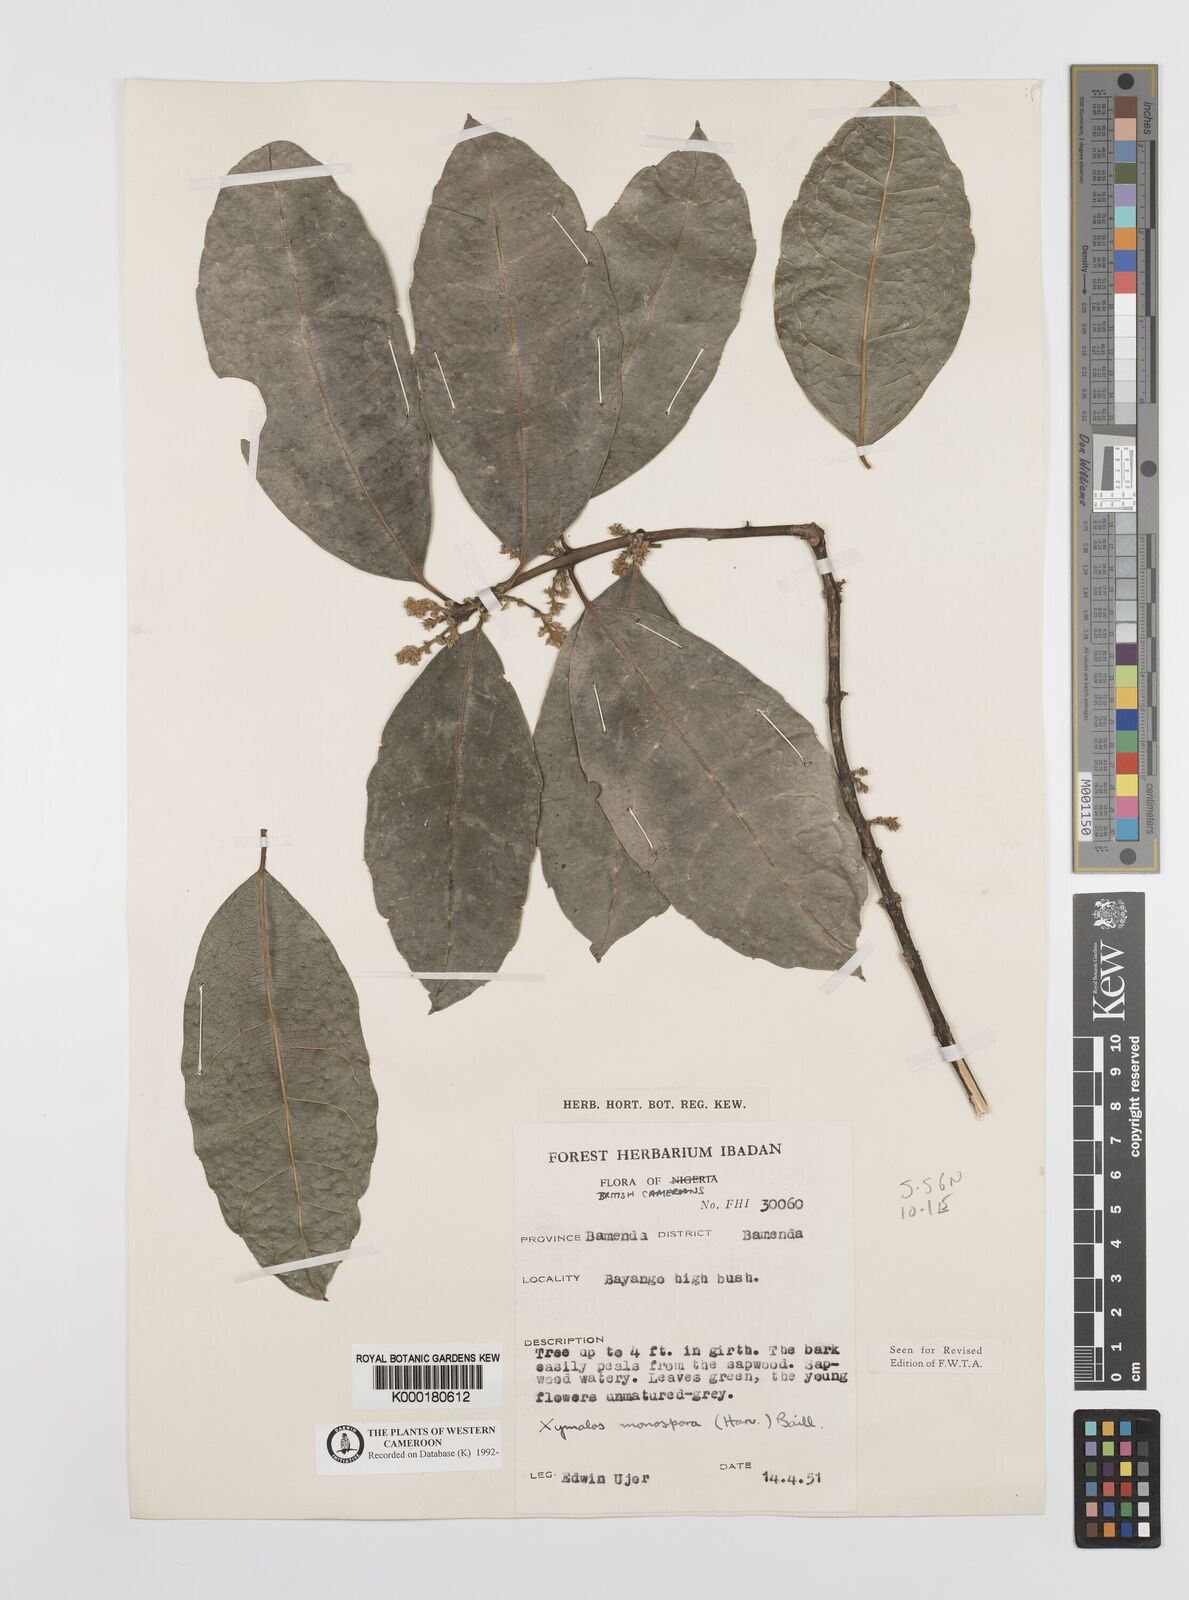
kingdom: Plantae
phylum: Tracheophyta
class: Magnoliopsida
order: Laurales
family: Monimiaceae
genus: Xymalos
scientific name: Xymalos
